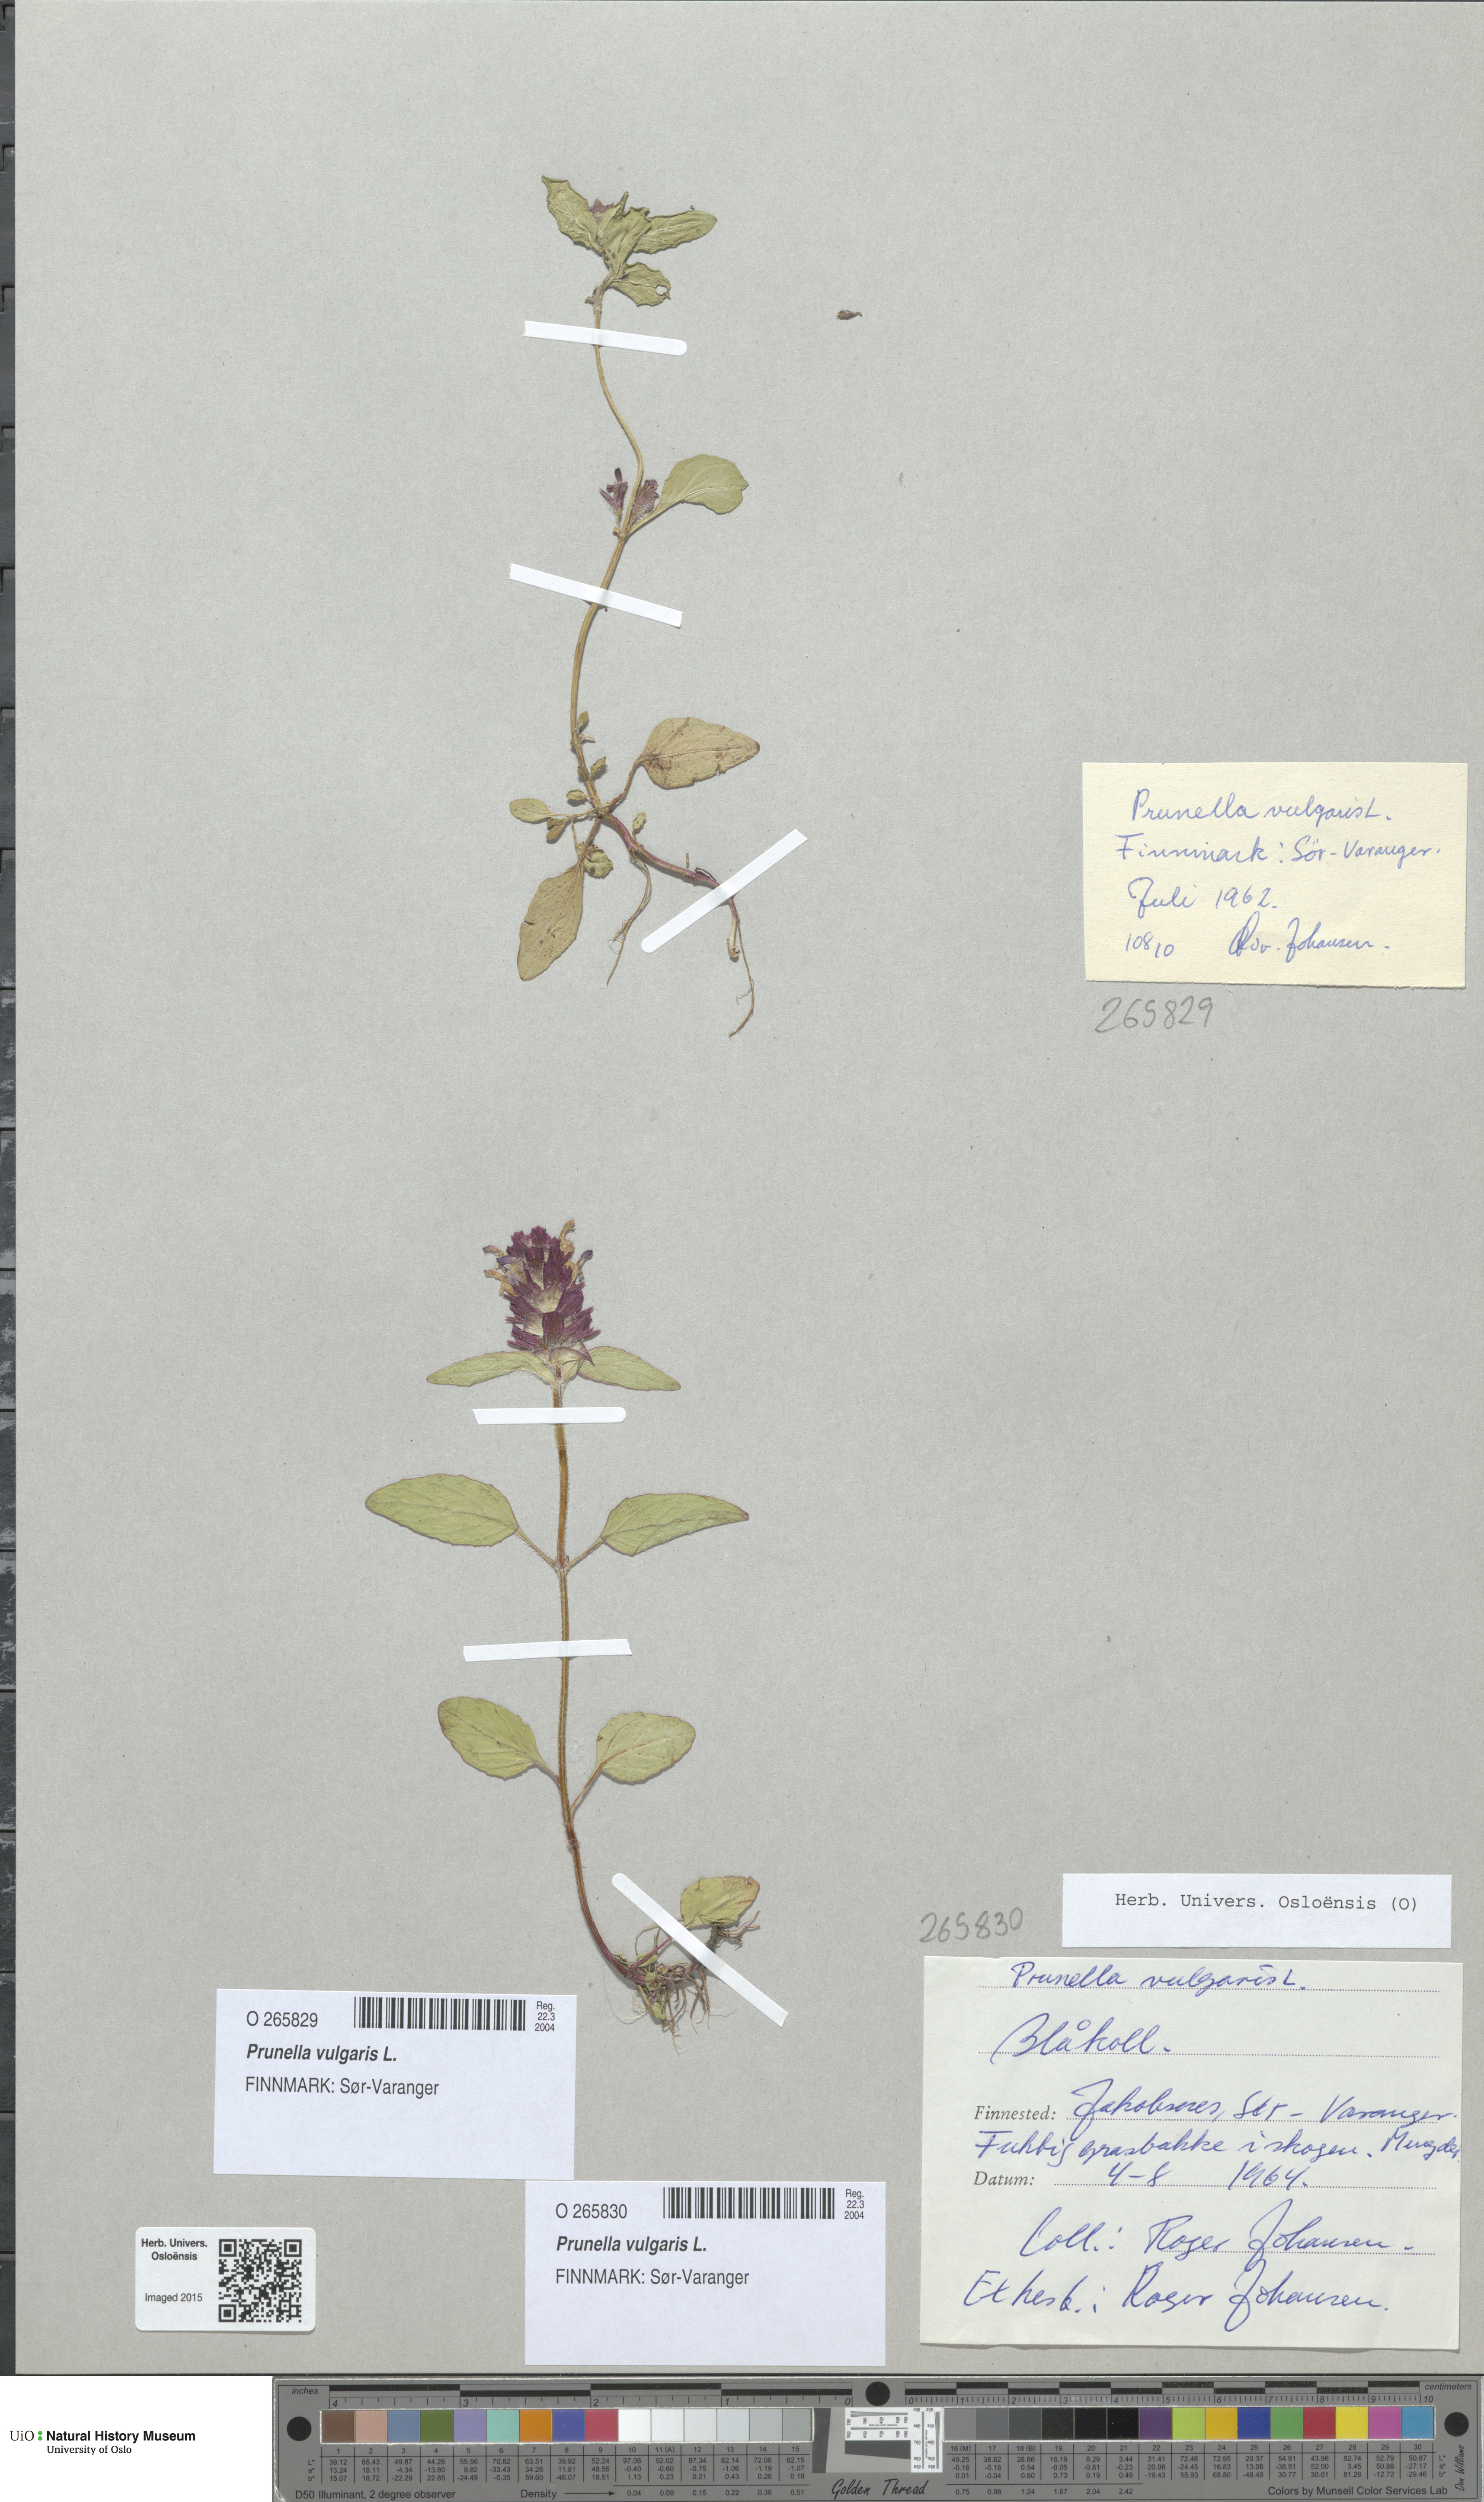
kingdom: Plantae
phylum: Tracheophyta
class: Magnoliopsida
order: Lamiales
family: Lamiaceae
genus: Prunella
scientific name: Prunella vulgaris
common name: Heal-all
